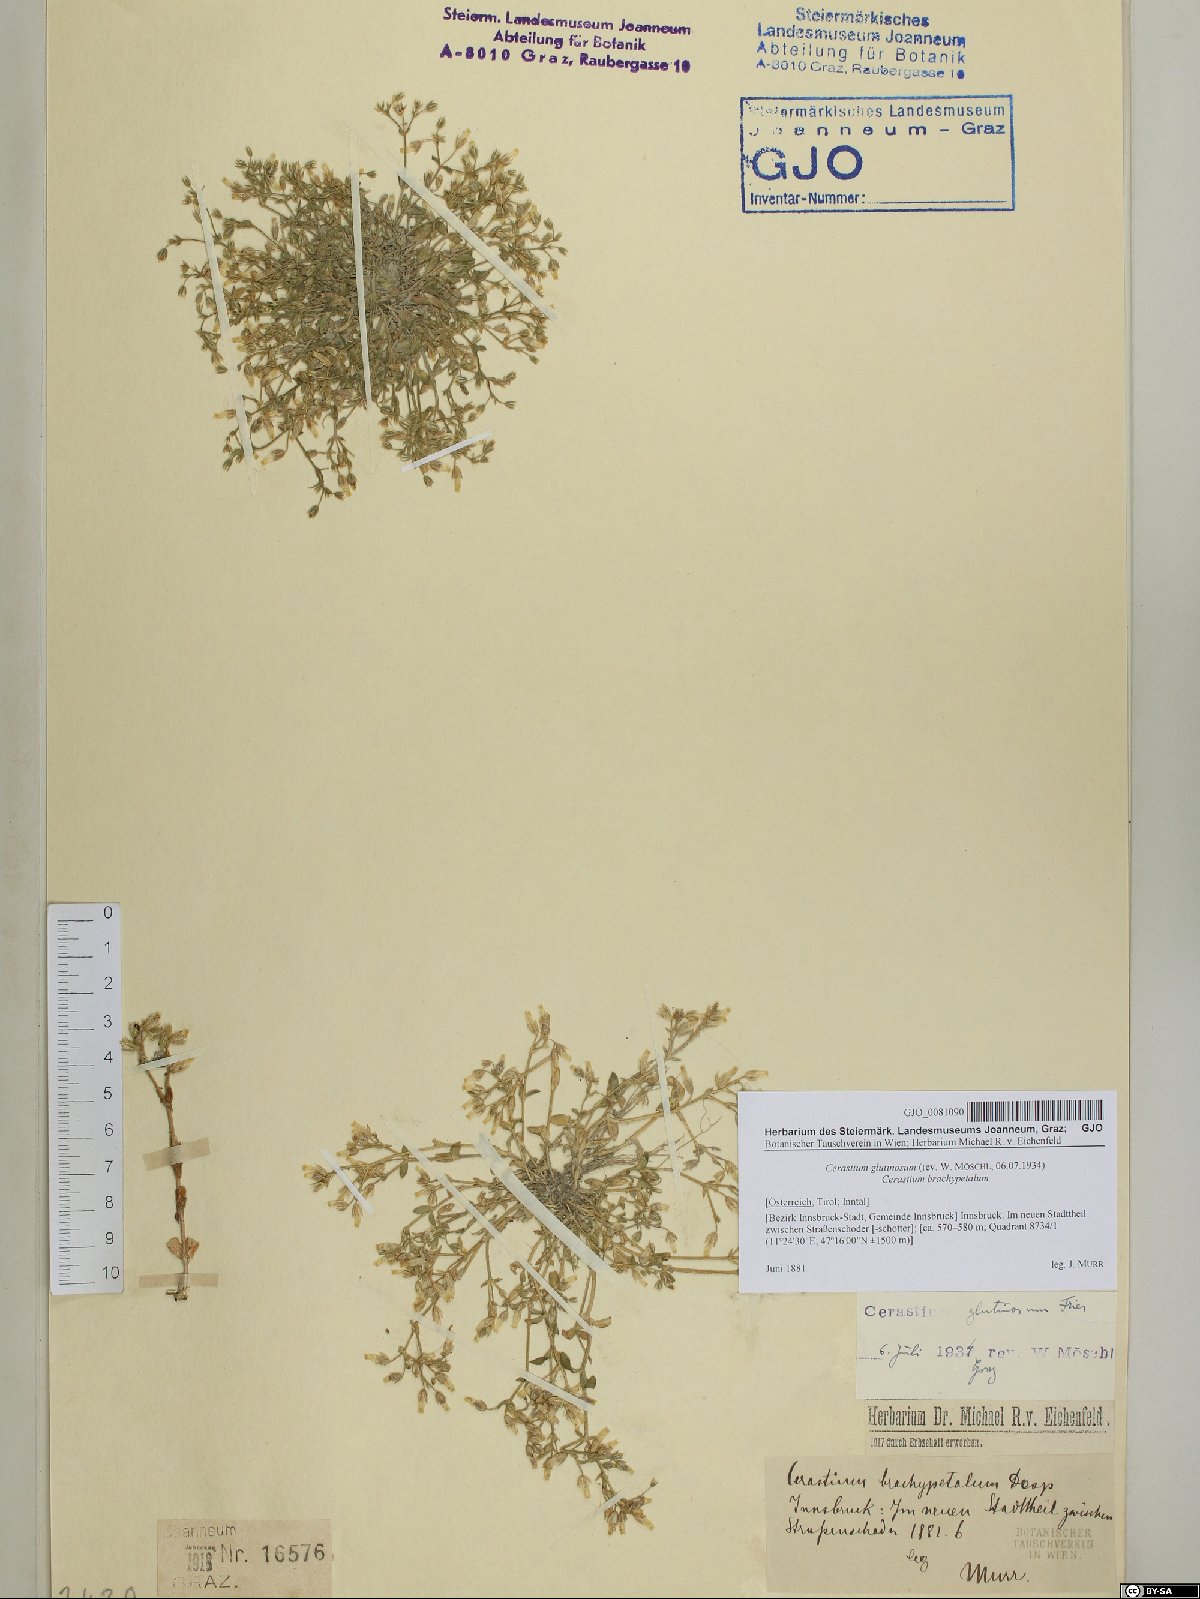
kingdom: Plantae
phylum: Tracheophyta
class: Magnoliopsida
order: Caryophyllales
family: Caryophyllaceae
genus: Cerastium
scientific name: Cerastium glutinosum
